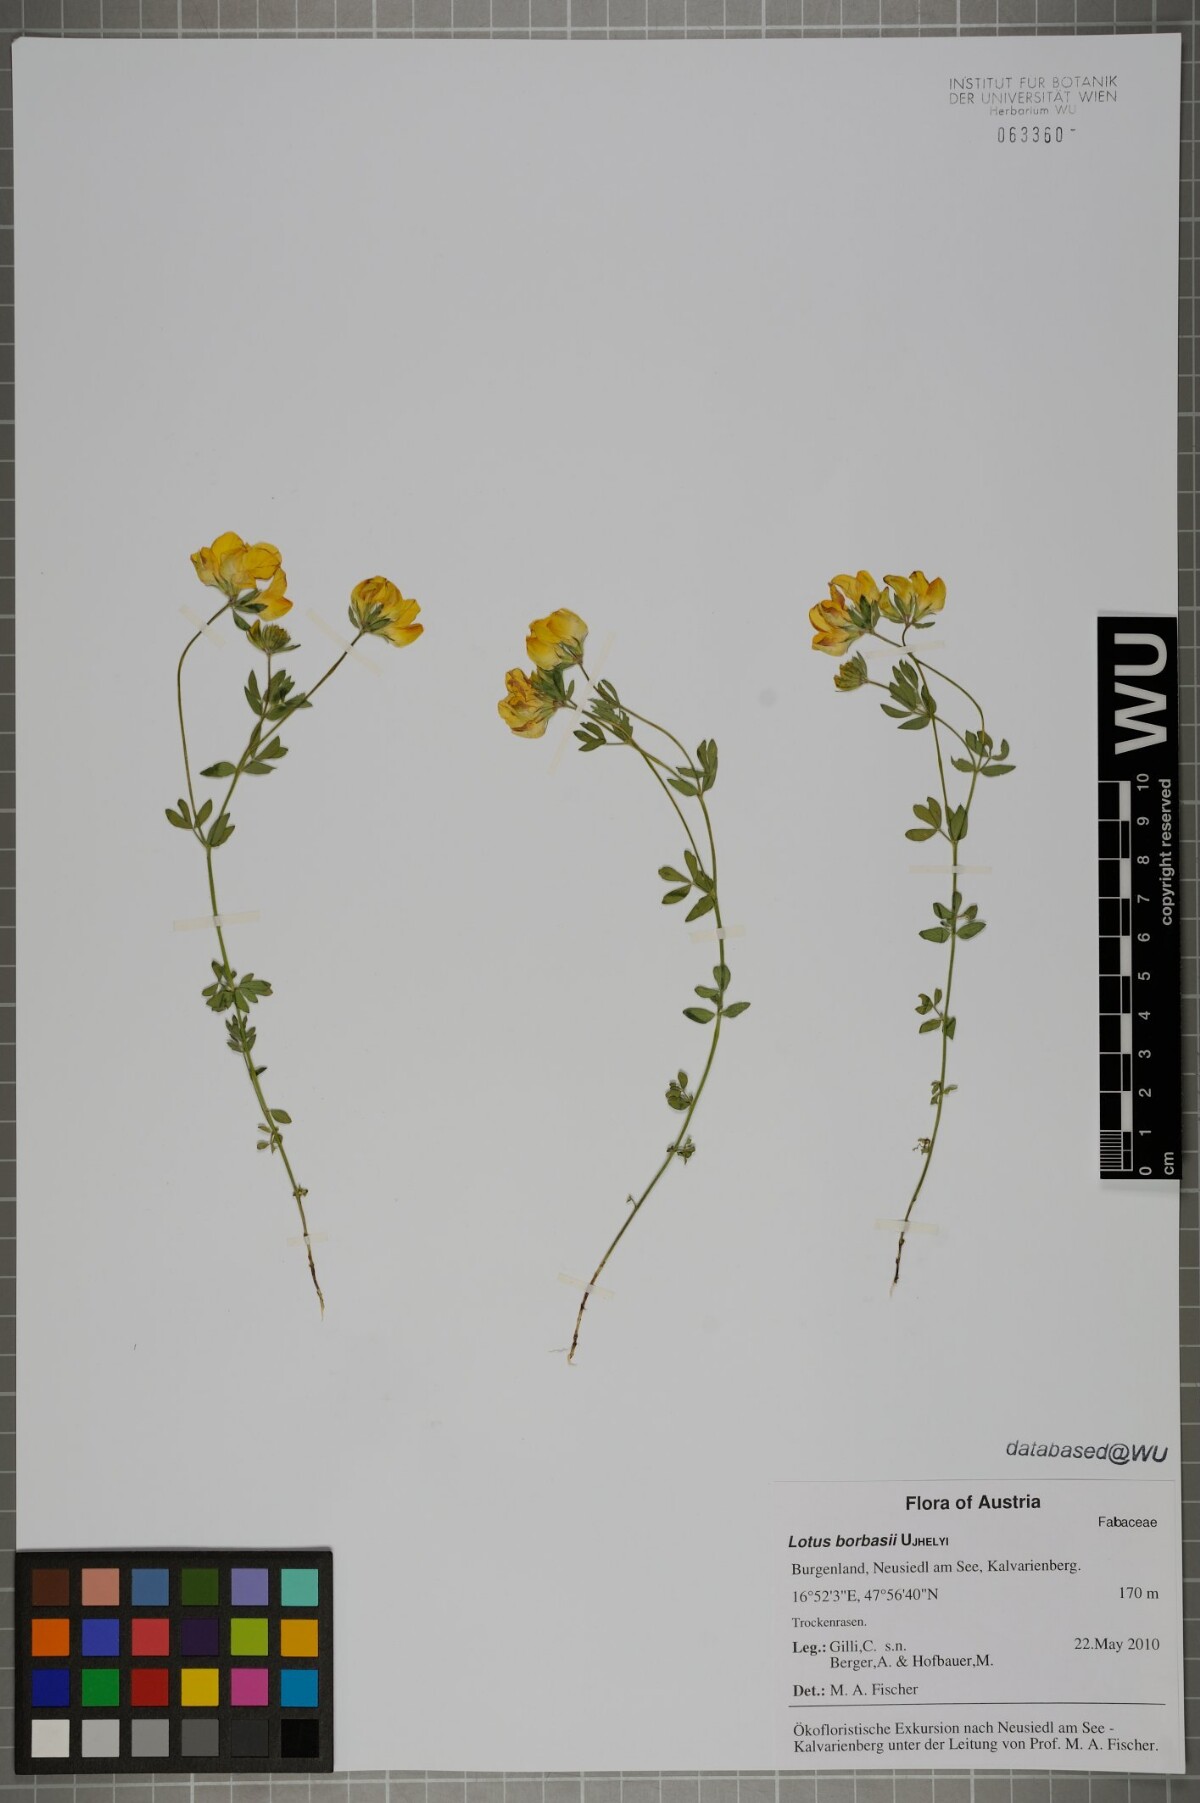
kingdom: Plantae
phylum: Tracheophyta
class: Magnoliopsida
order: Fabales
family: Fabaceae
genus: Lotus
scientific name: Lotus borbasii
